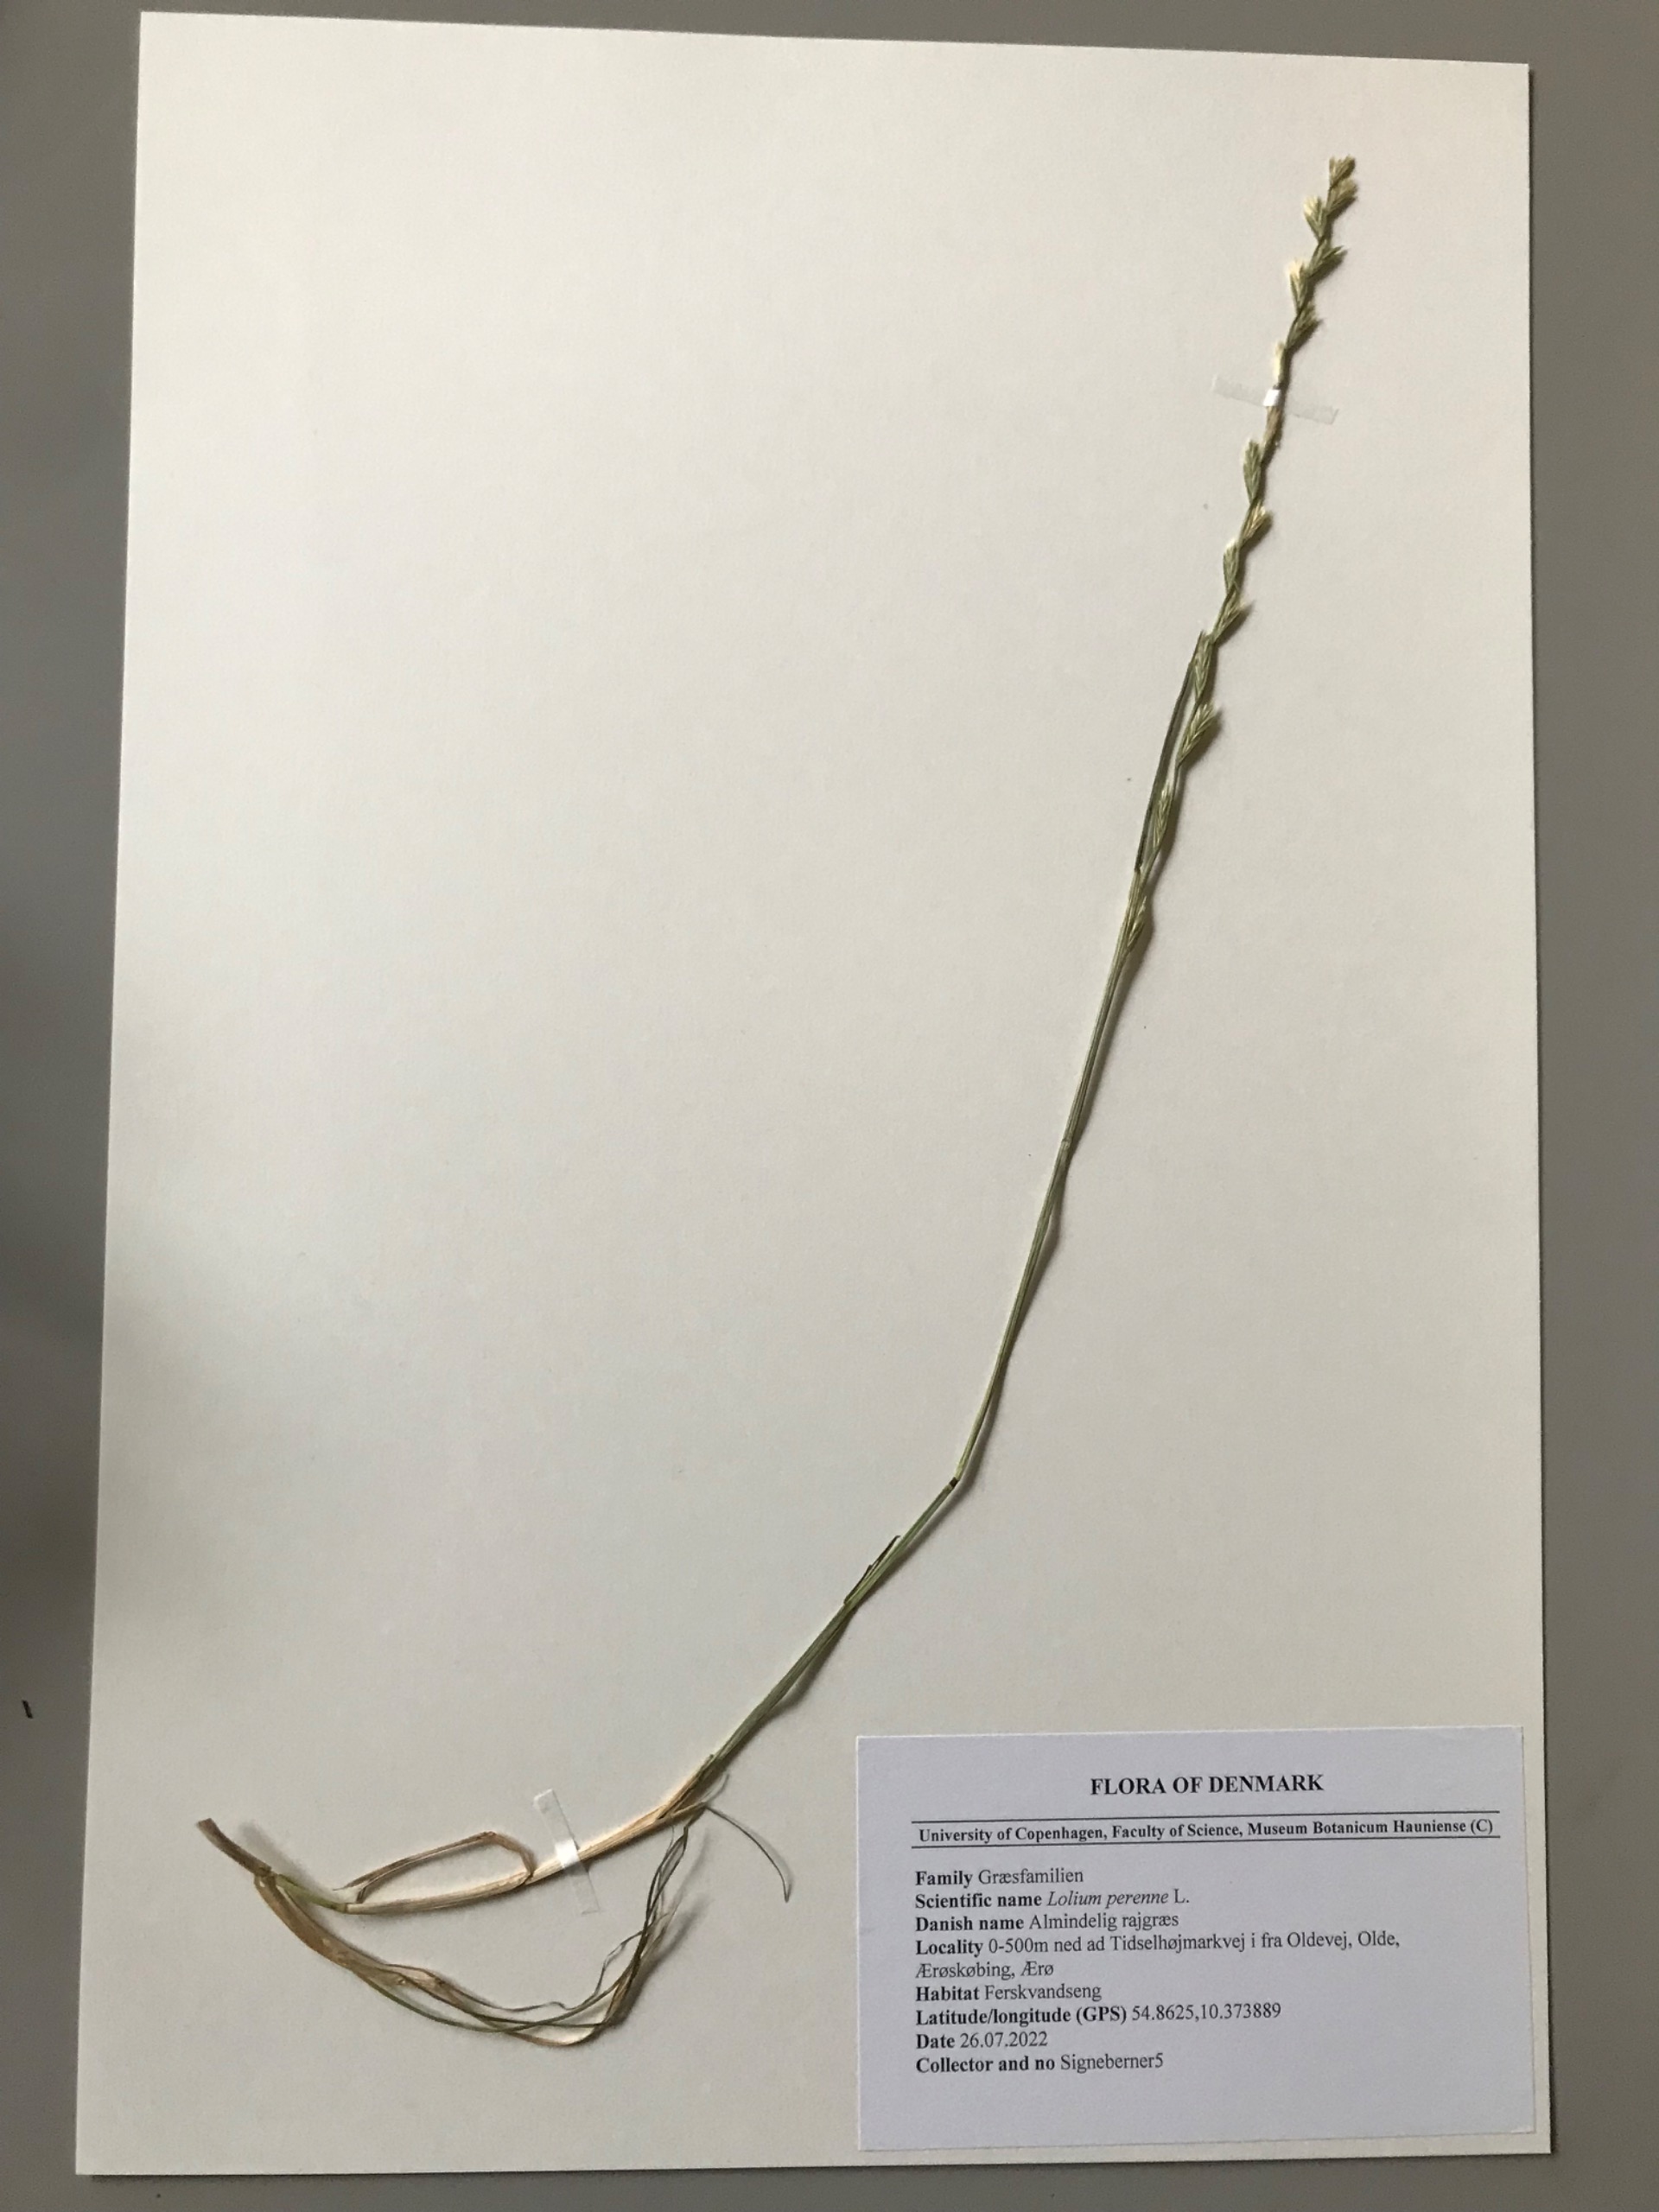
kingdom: Plantae
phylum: Tracheophyta
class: Liliopsida
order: Poales
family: Poaceae
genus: Lolium
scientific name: Lolium perenne
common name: Almindelig rajgræs
